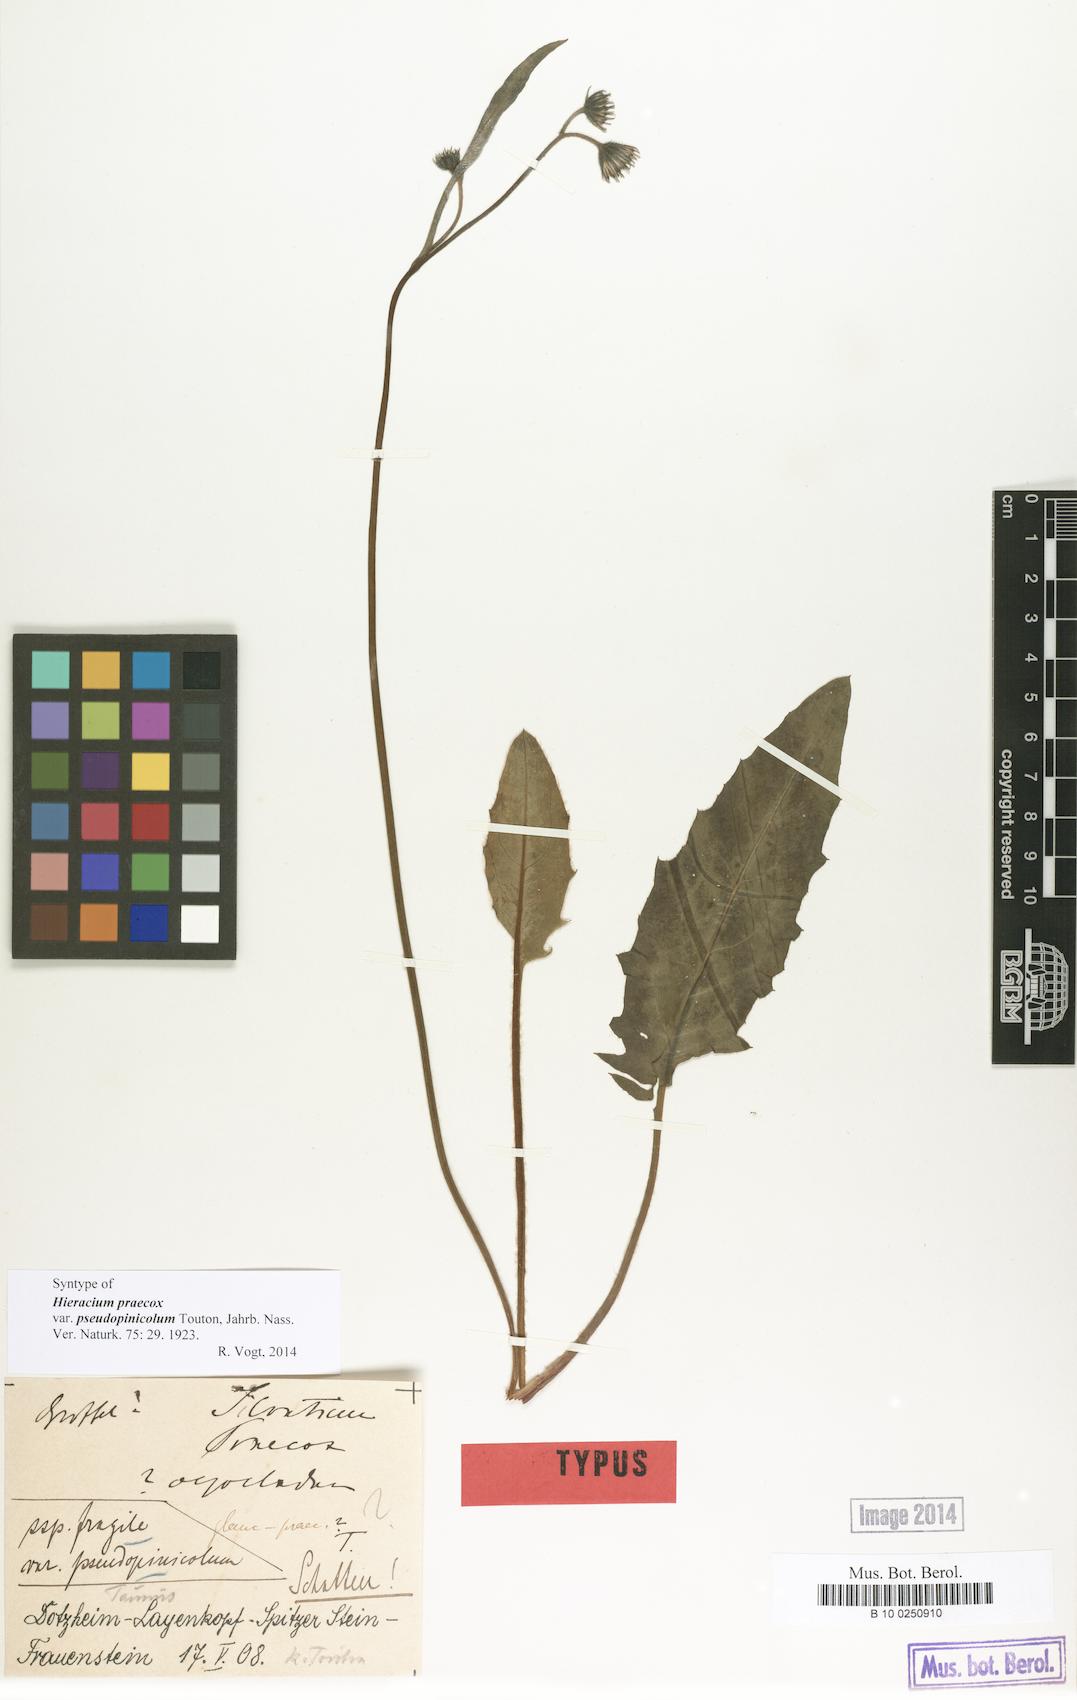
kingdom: Plantae
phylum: Tracheophyta
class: Magnoliopsida
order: Asterales
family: Asteraceae
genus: Hieracium
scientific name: Hieracium praecox
